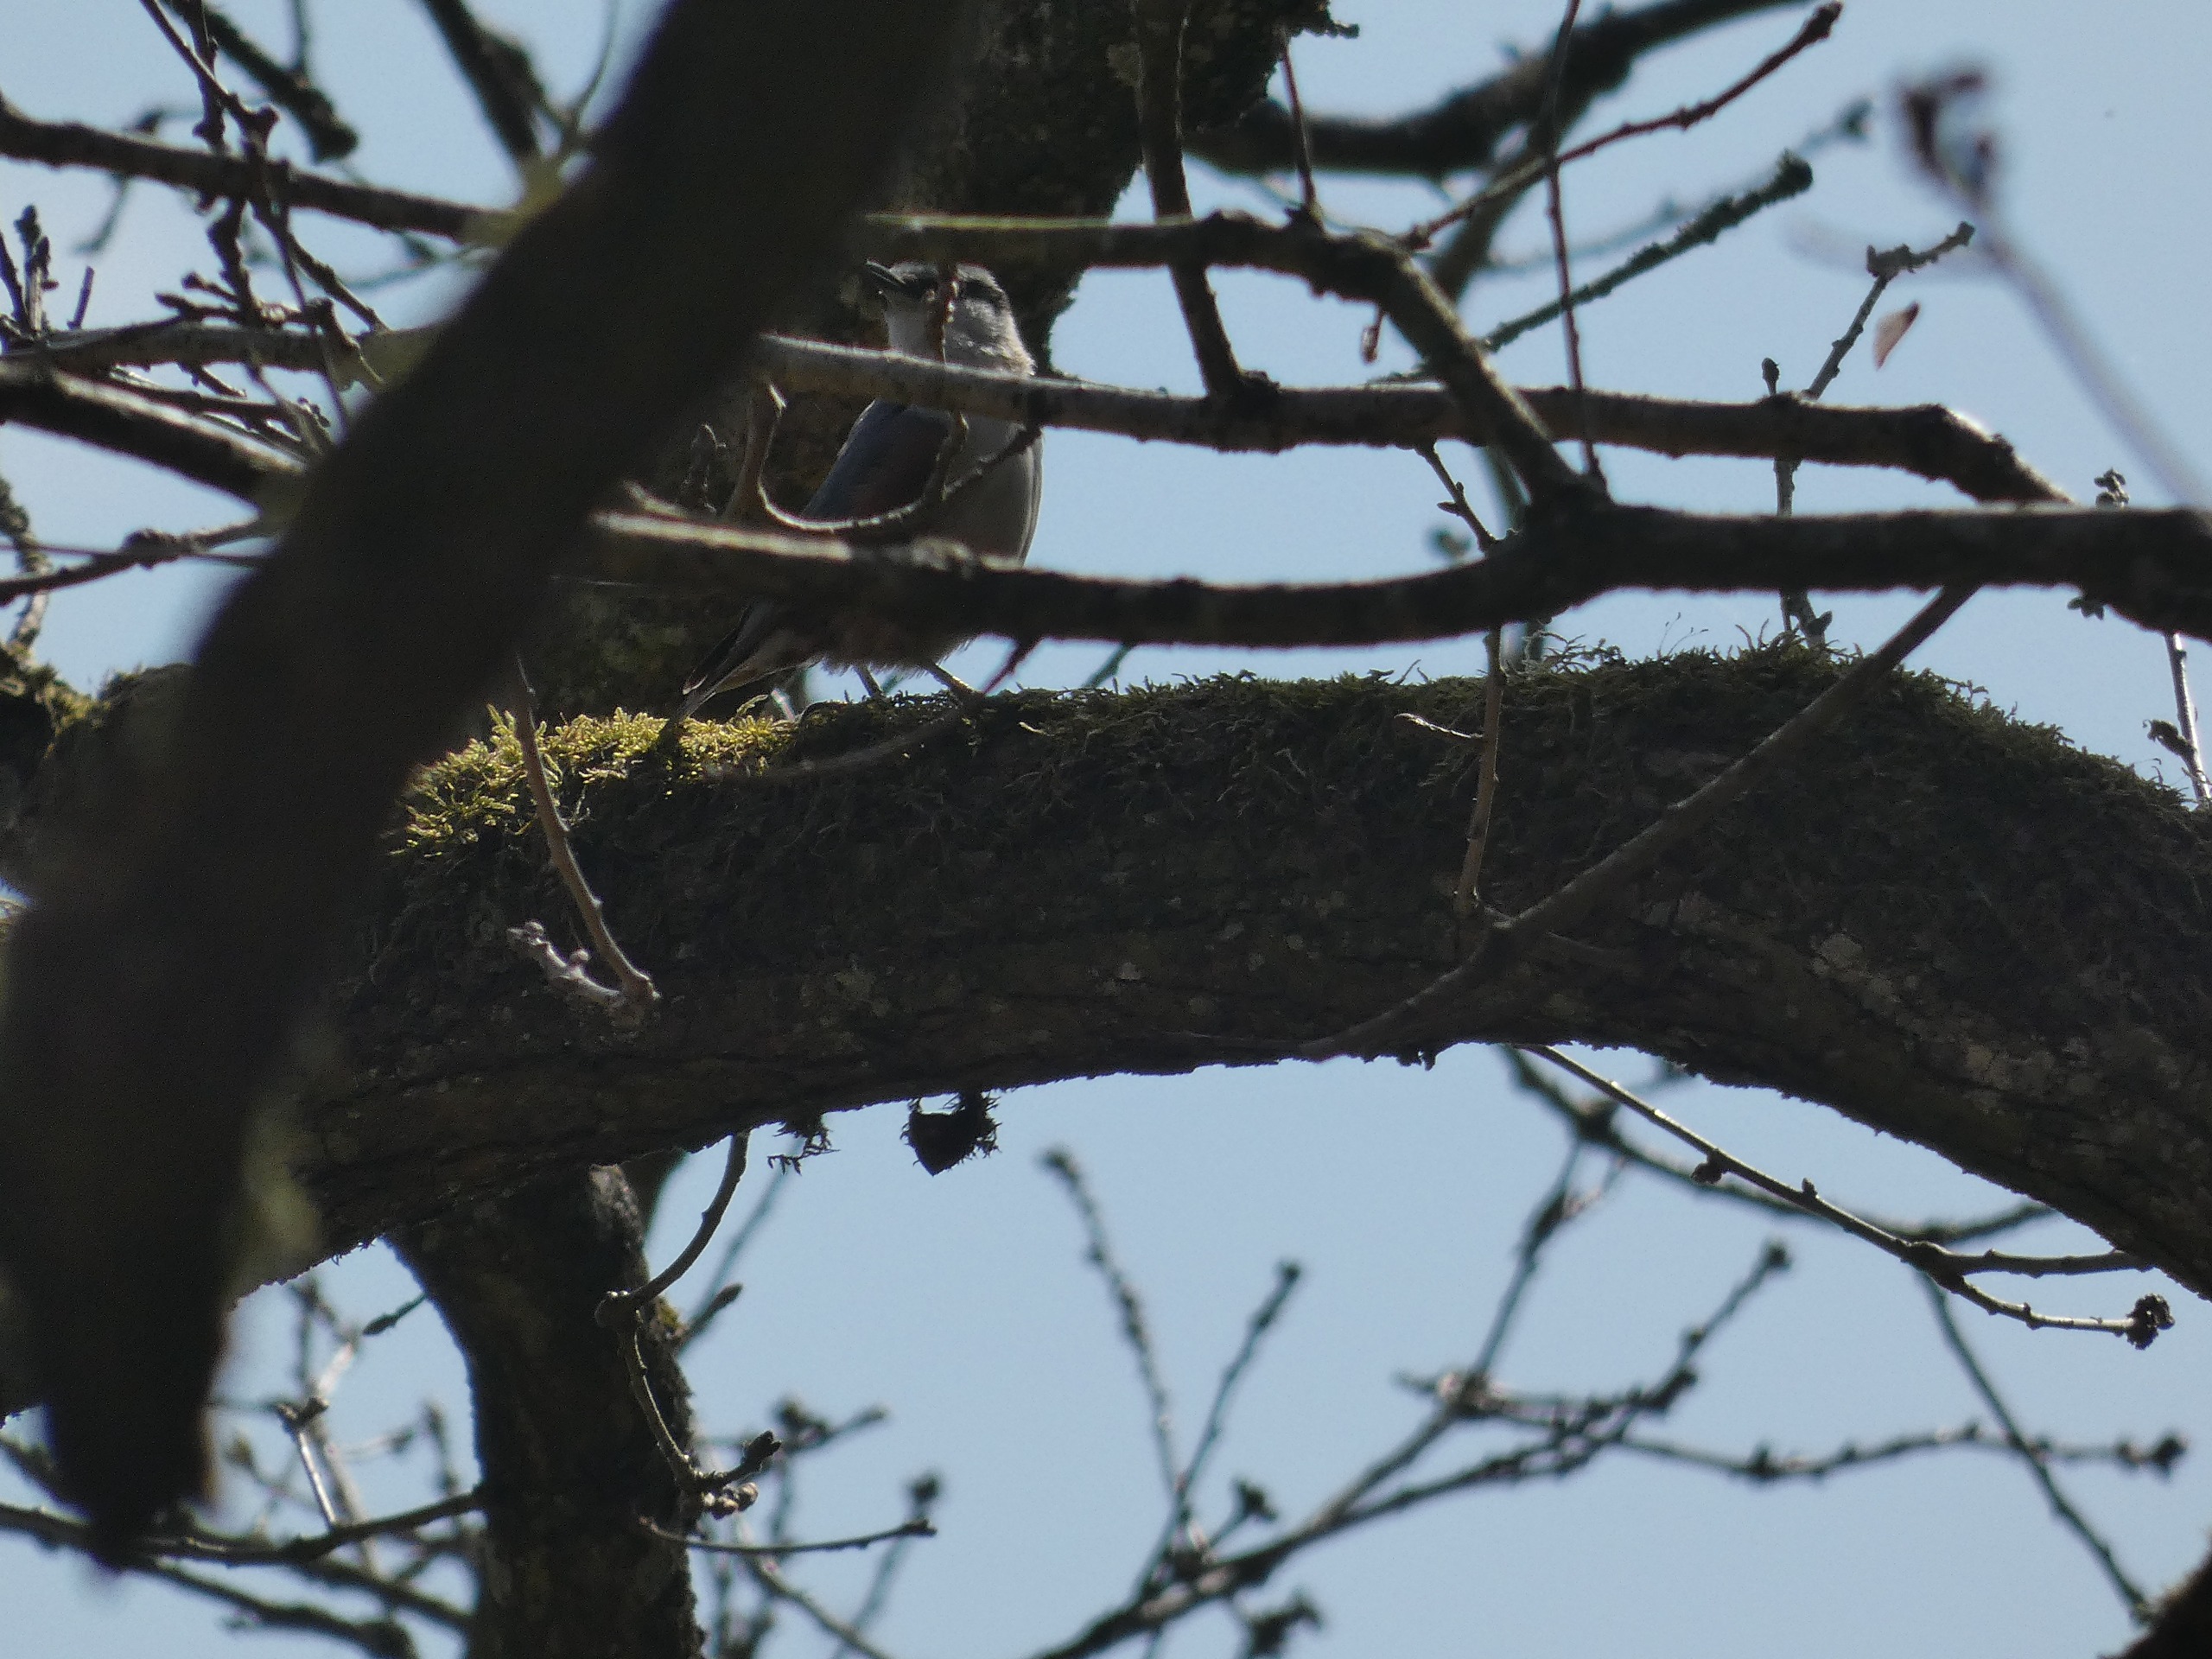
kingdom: Animalia
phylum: Chordata
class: Aves
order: Passeriformes
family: Sittidae
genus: Sitta
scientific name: Sitta europaea
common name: Spætmejse
